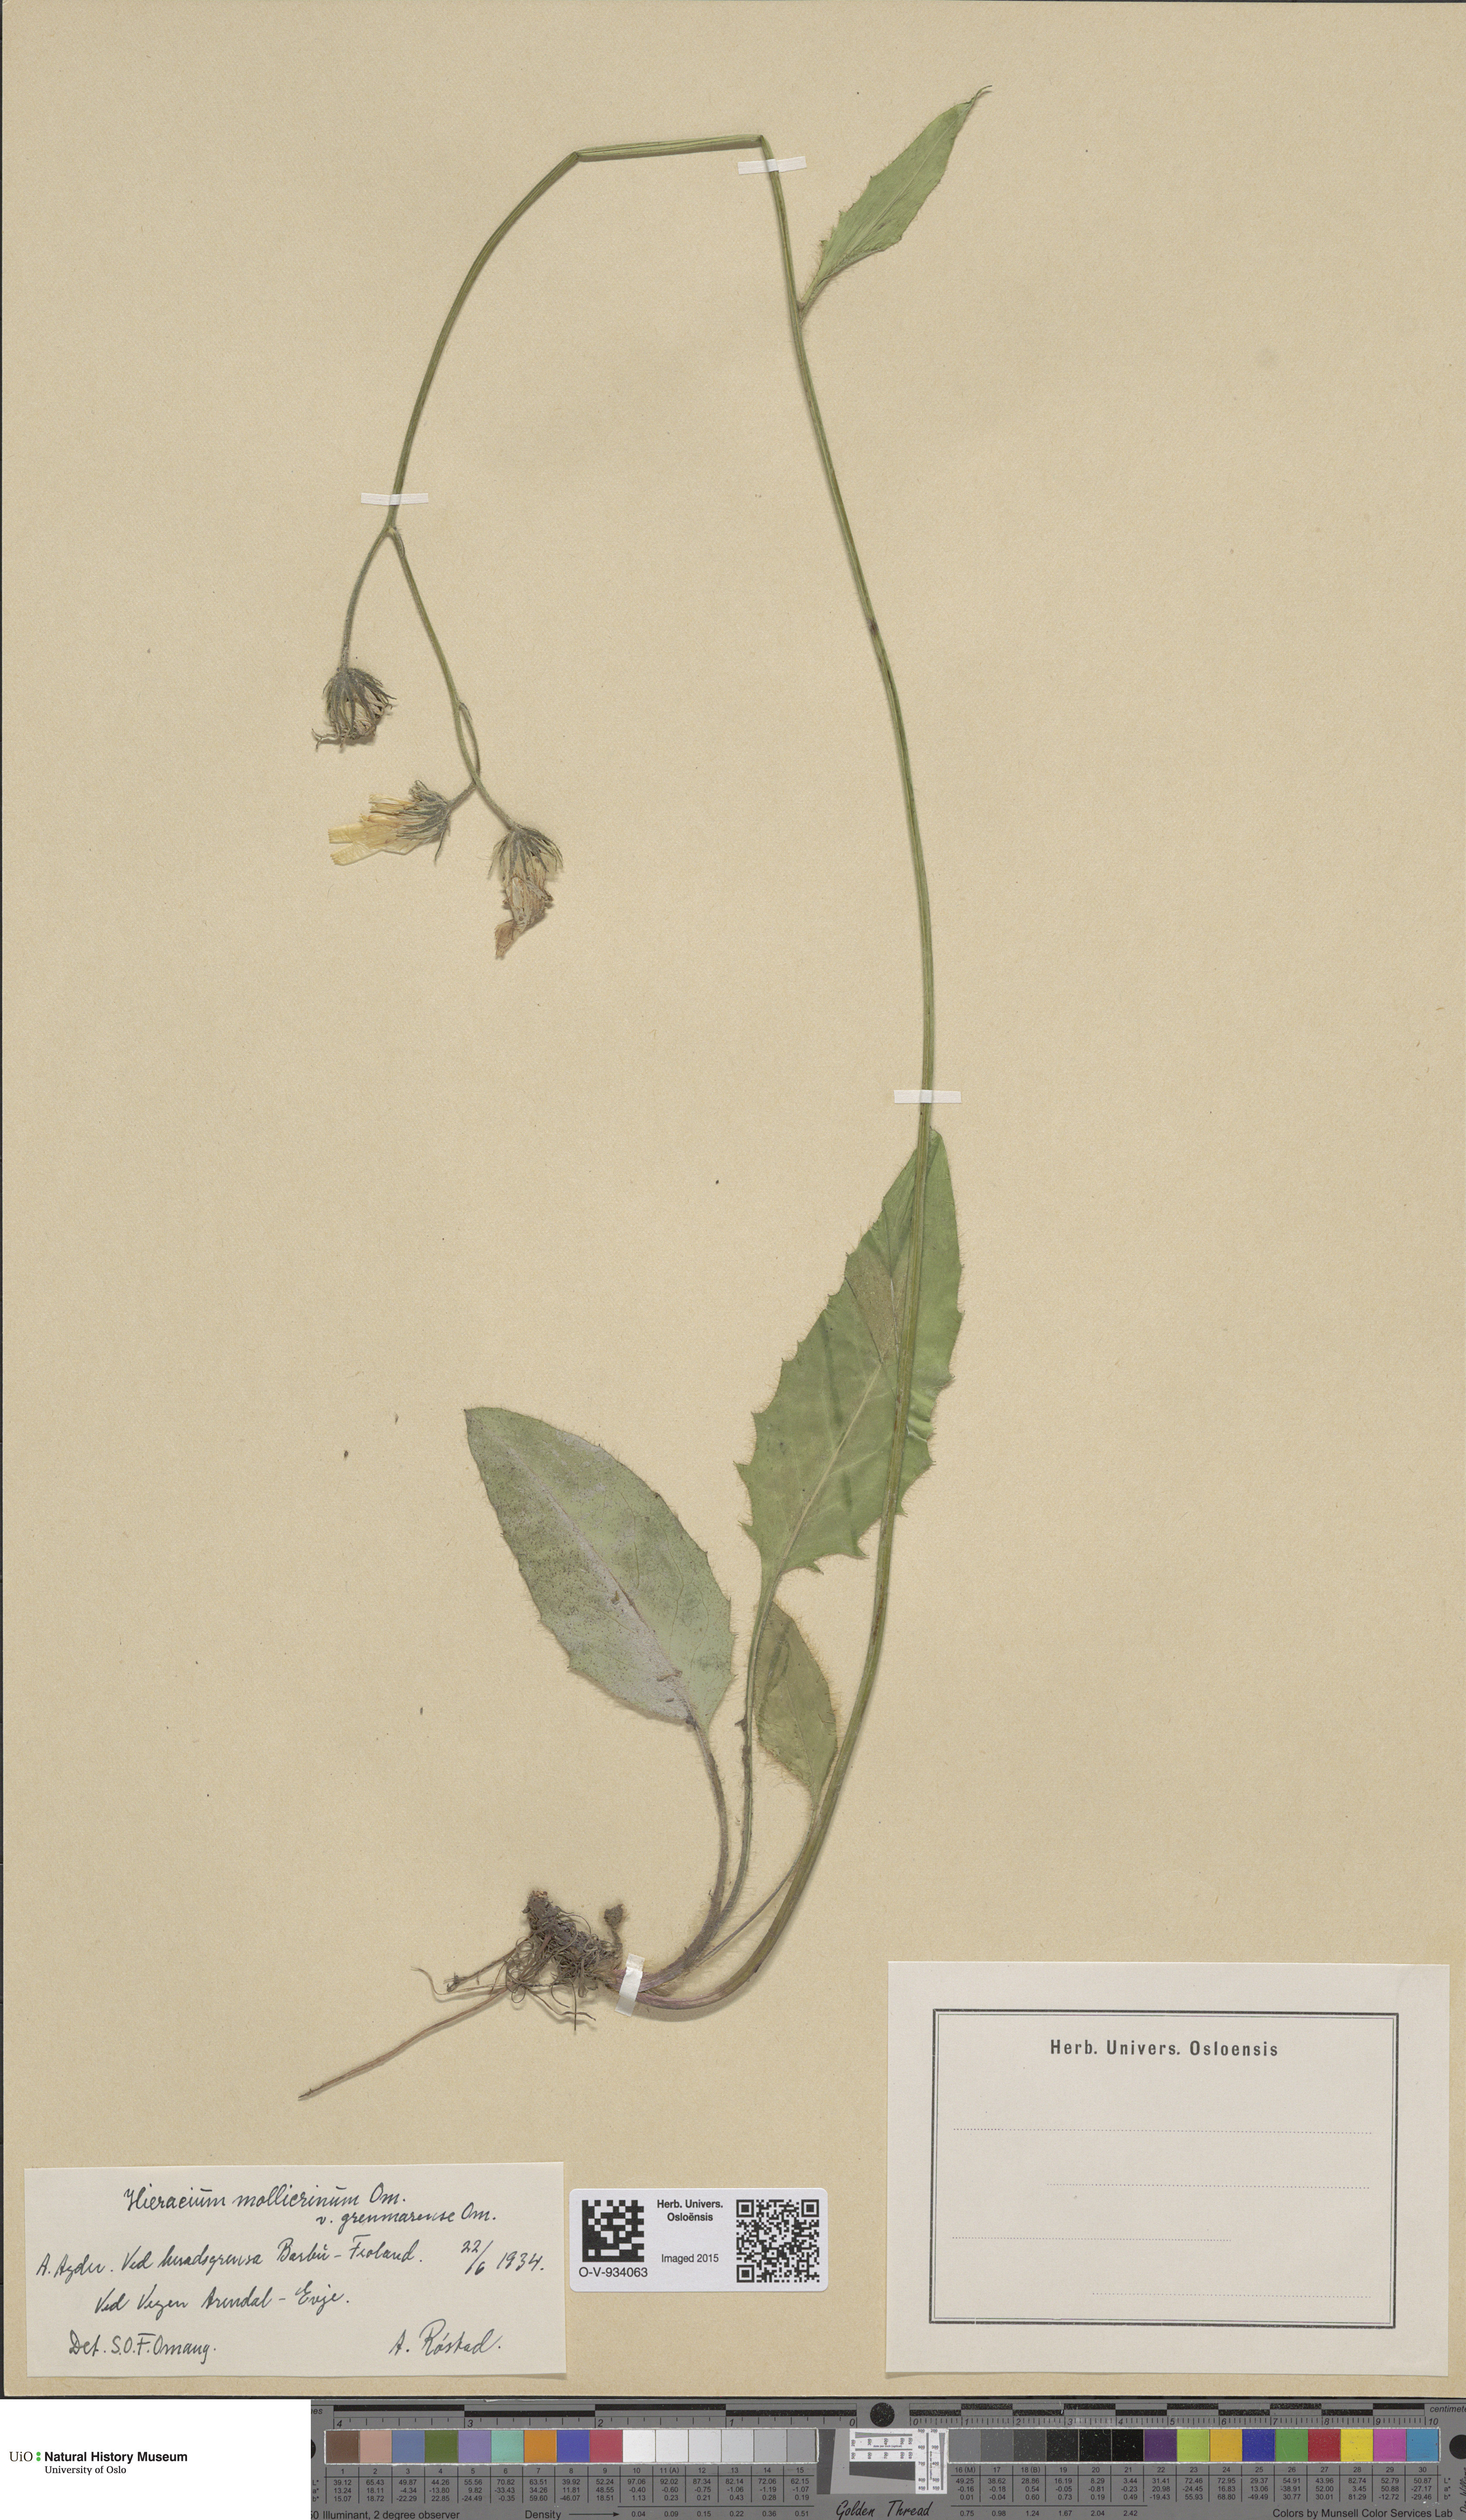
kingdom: Plantae
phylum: Tracheophyta
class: Magnoliopsida
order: Asterales
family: Asteraceae
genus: Hieracium
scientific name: Hieracium schmidtii
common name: Schmidt's hawkweed
